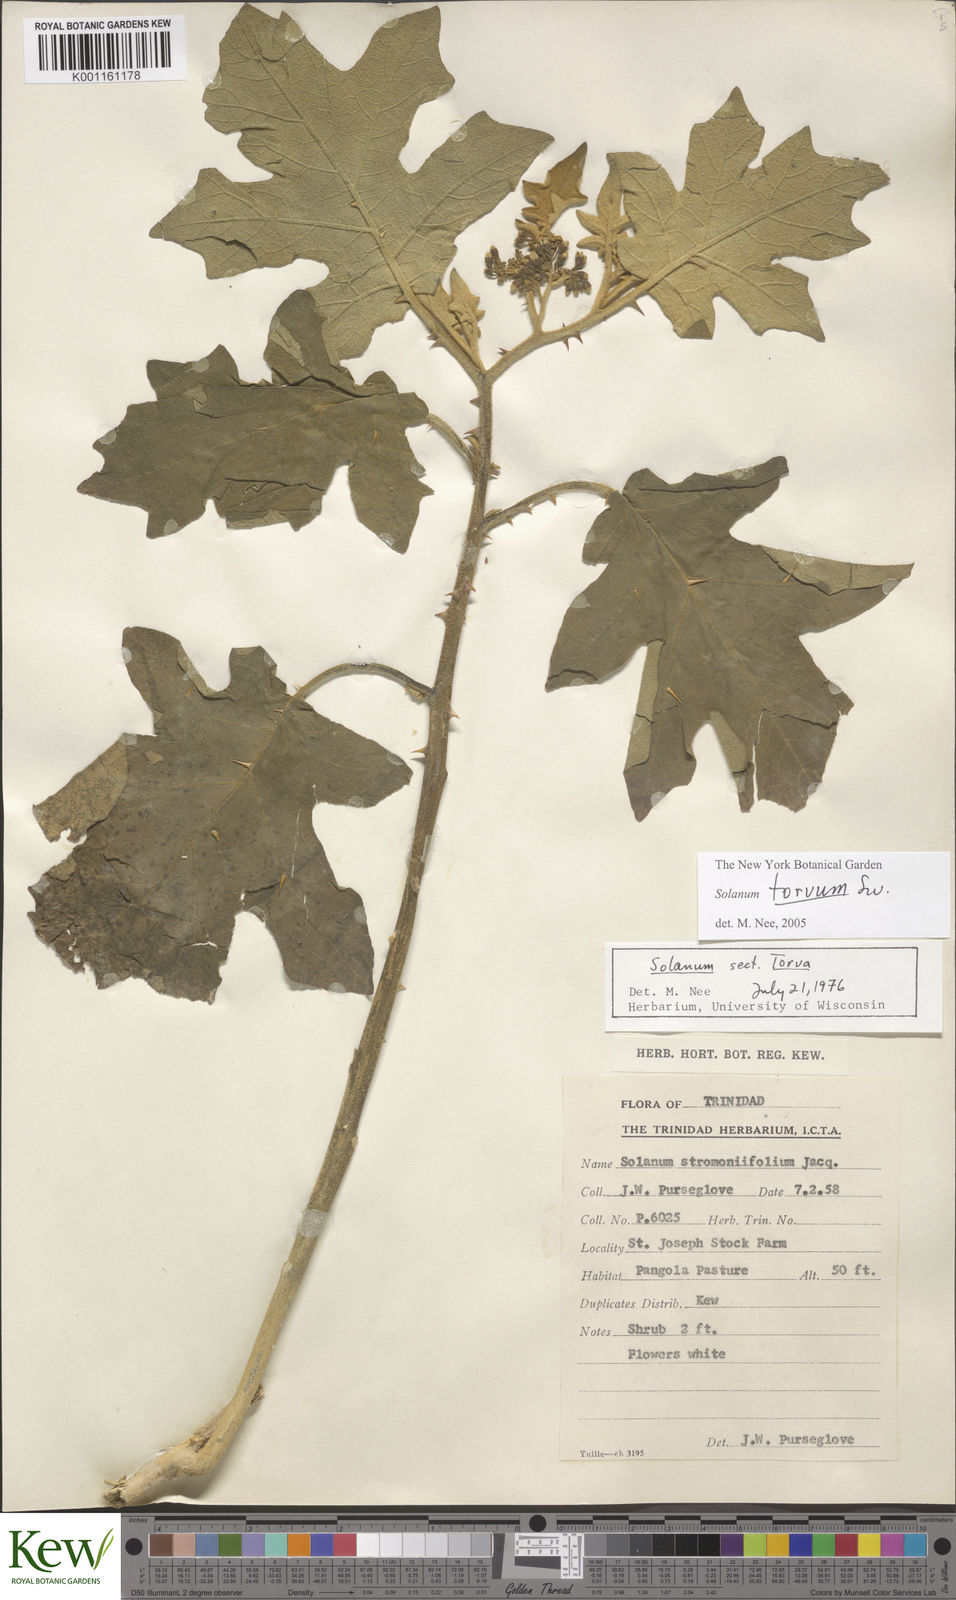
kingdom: Plantae
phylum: Tracheophyta
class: Magnoliopsida
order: Solanales
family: Solanaceae
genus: Solanum
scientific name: Solanum torvum
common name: Turkey berry
